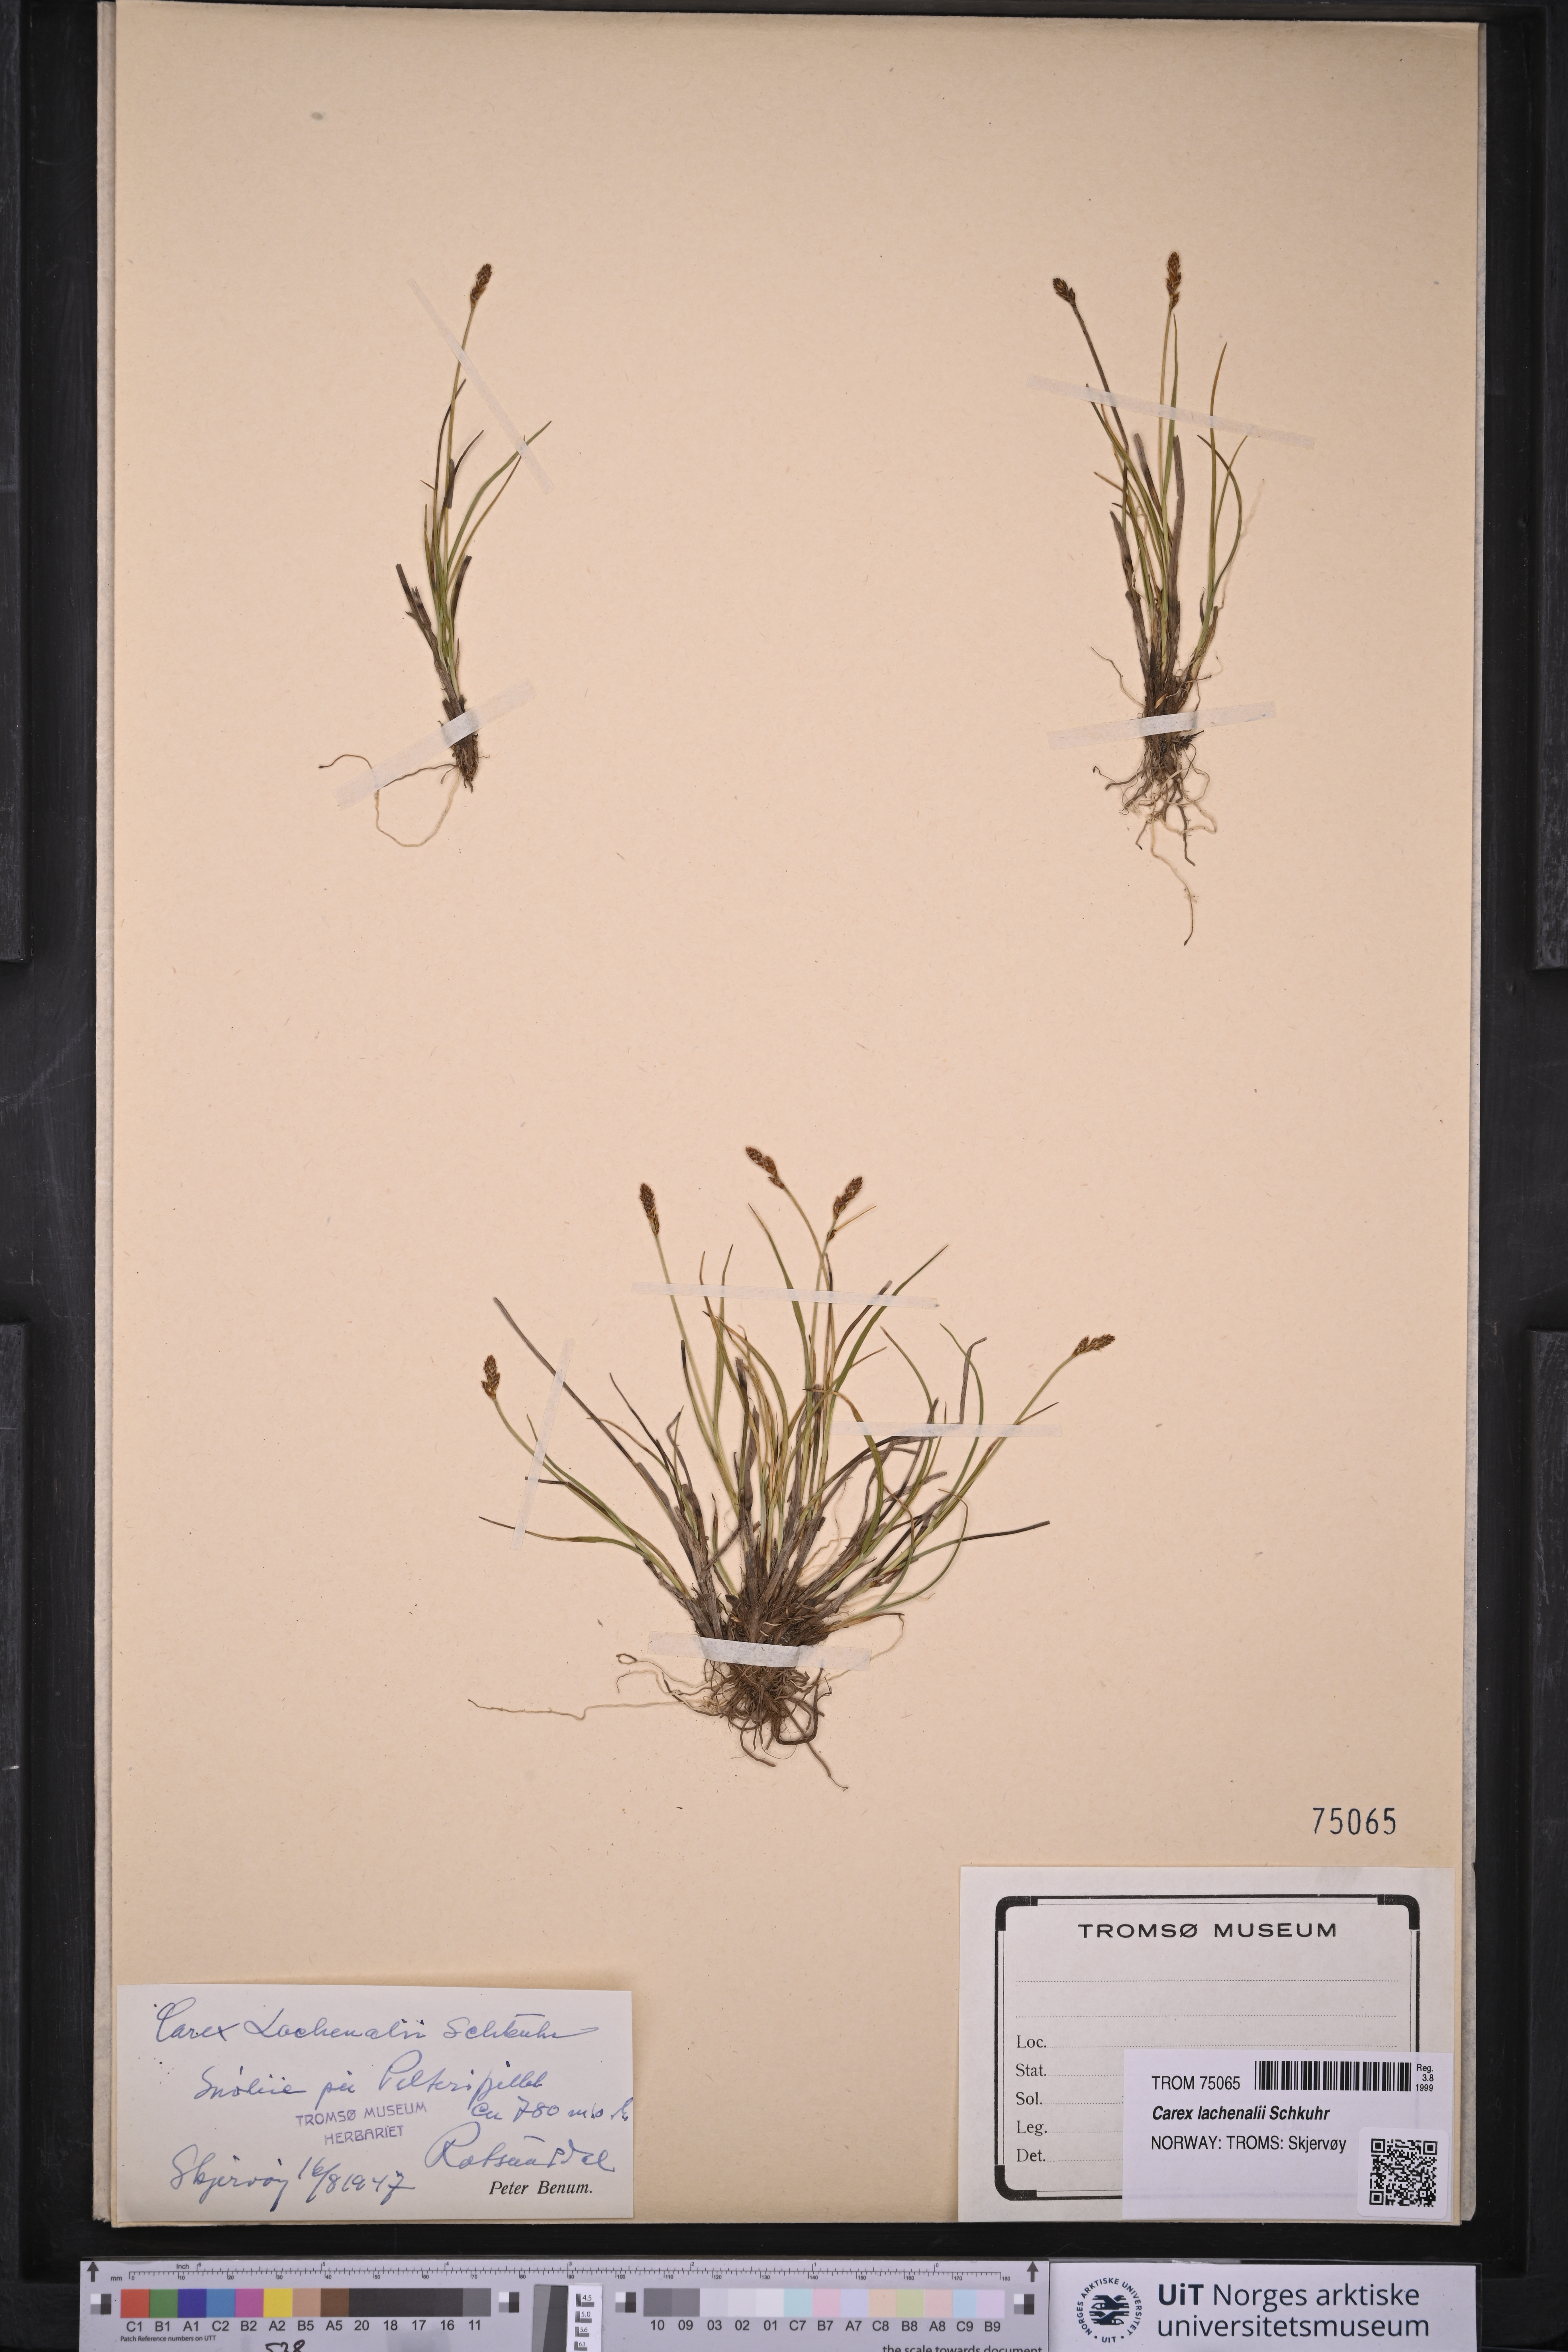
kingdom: Plantae
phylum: Tracheophyta
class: Liliopsida
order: Poales
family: Cyperaceae
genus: Carex
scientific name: Carex lachenalii
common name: Hare's-foot sedge
